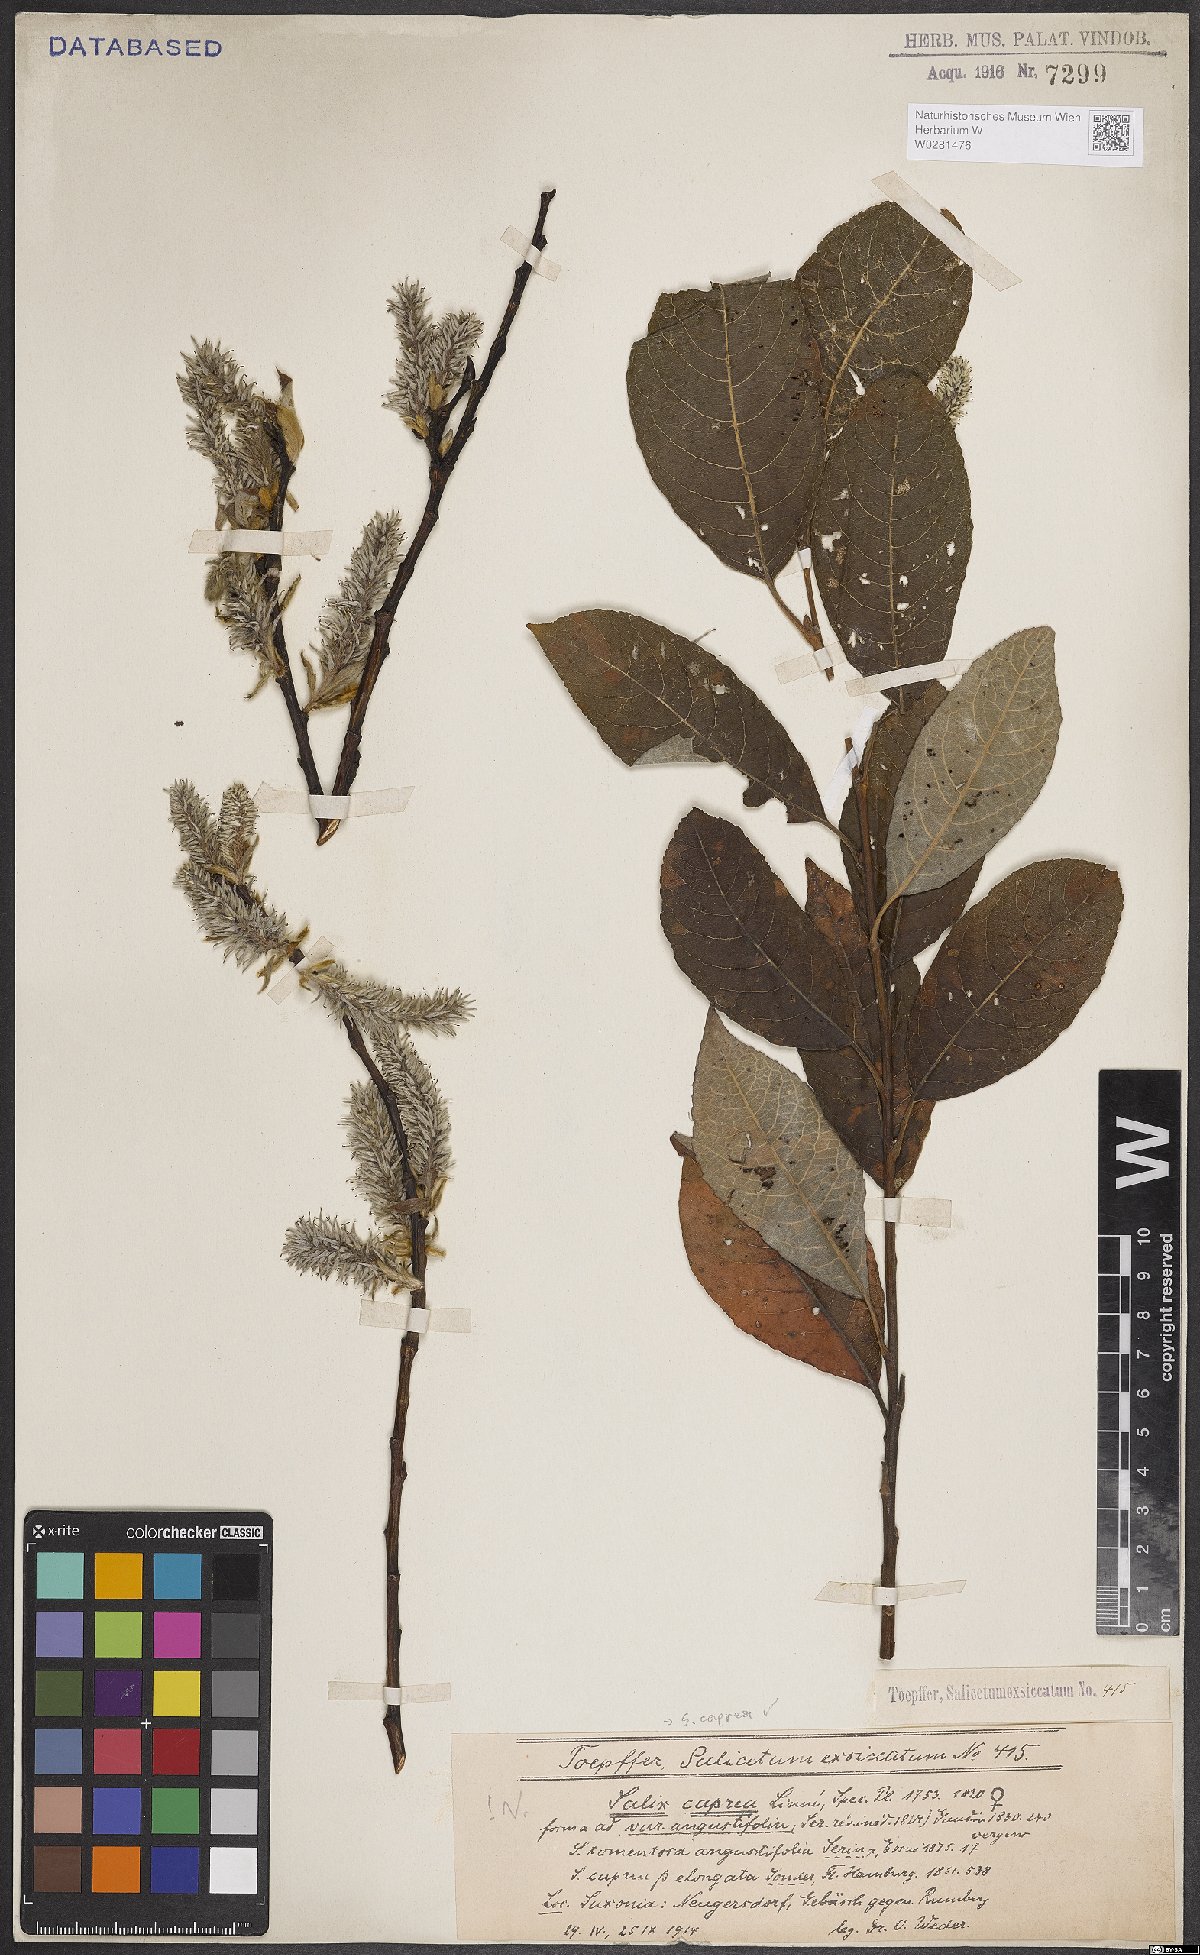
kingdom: Plantae
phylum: Tracheophyta
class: Magnoliopsida
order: Malpighiales
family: Salicaceae
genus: Salix
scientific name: Salix caprea
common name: Goat willow
